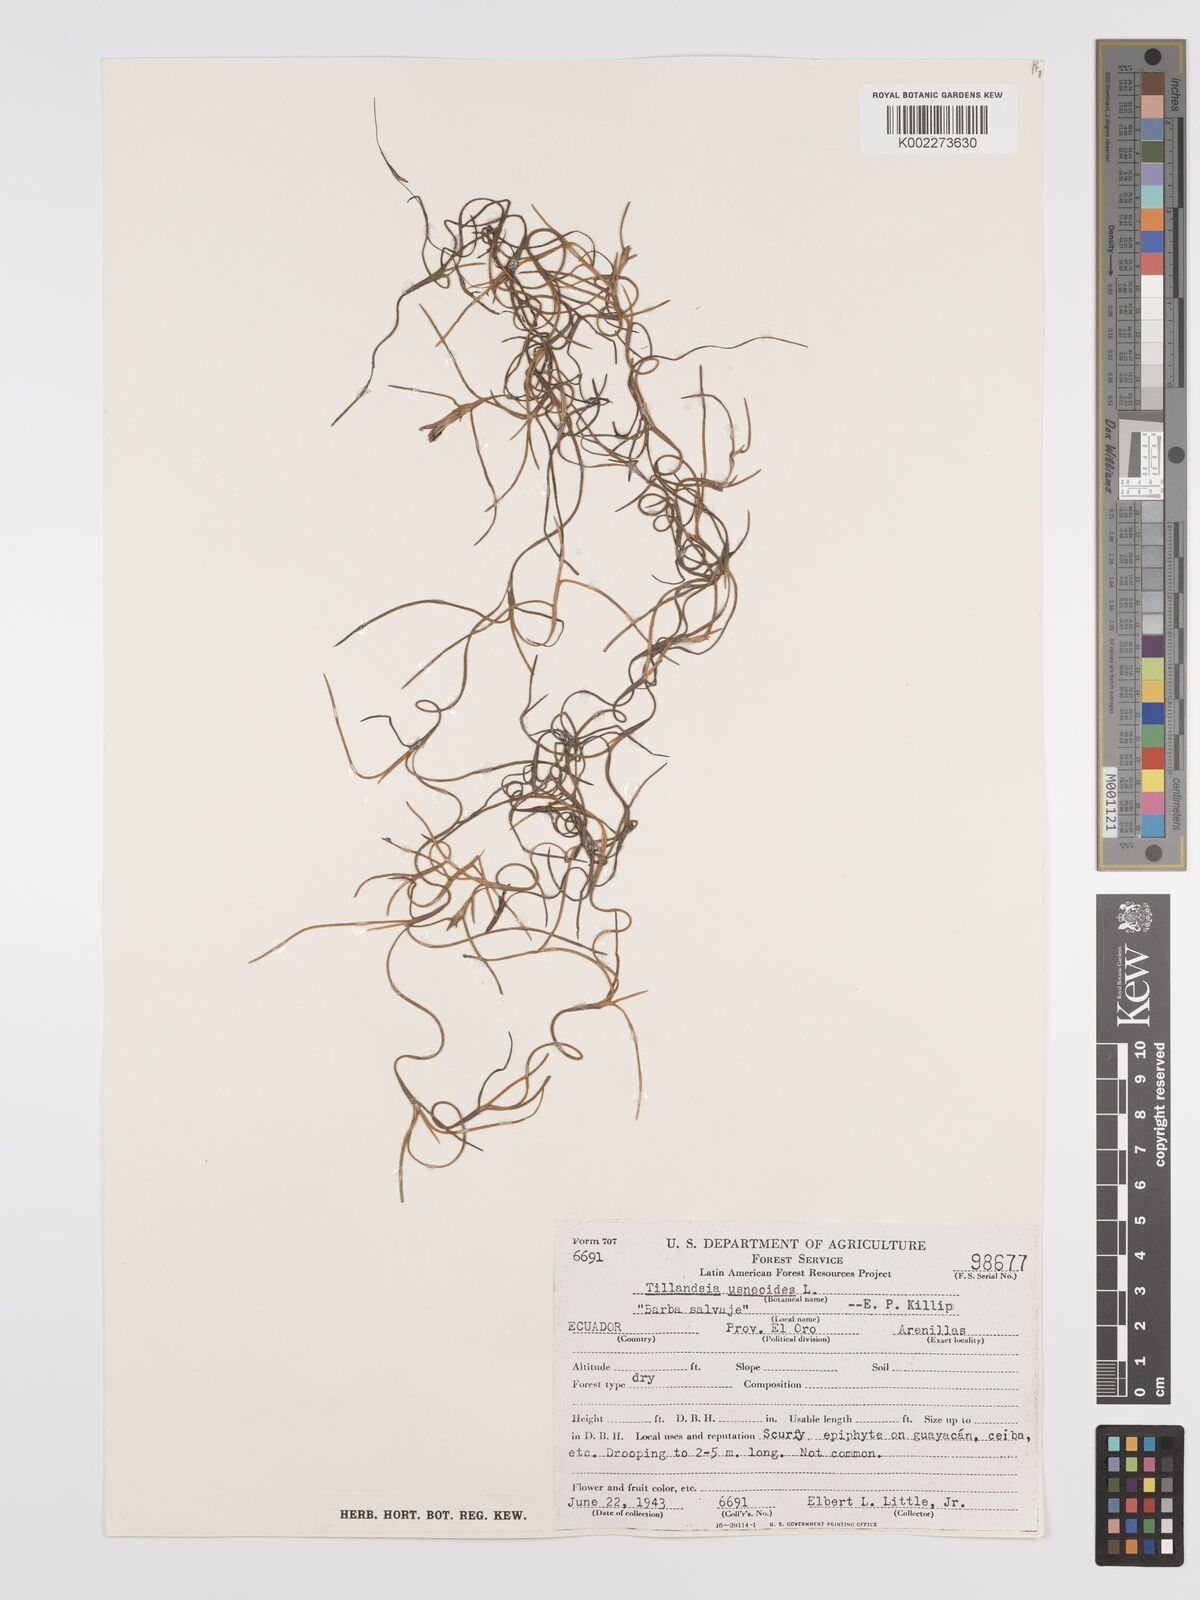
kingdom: Plantae
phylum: Tracheophyta
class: Liliopsida
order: Poales
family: Bromeliaceae
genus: Tillandsia
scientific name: Tillandsia usneoides
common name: Spanish moss
